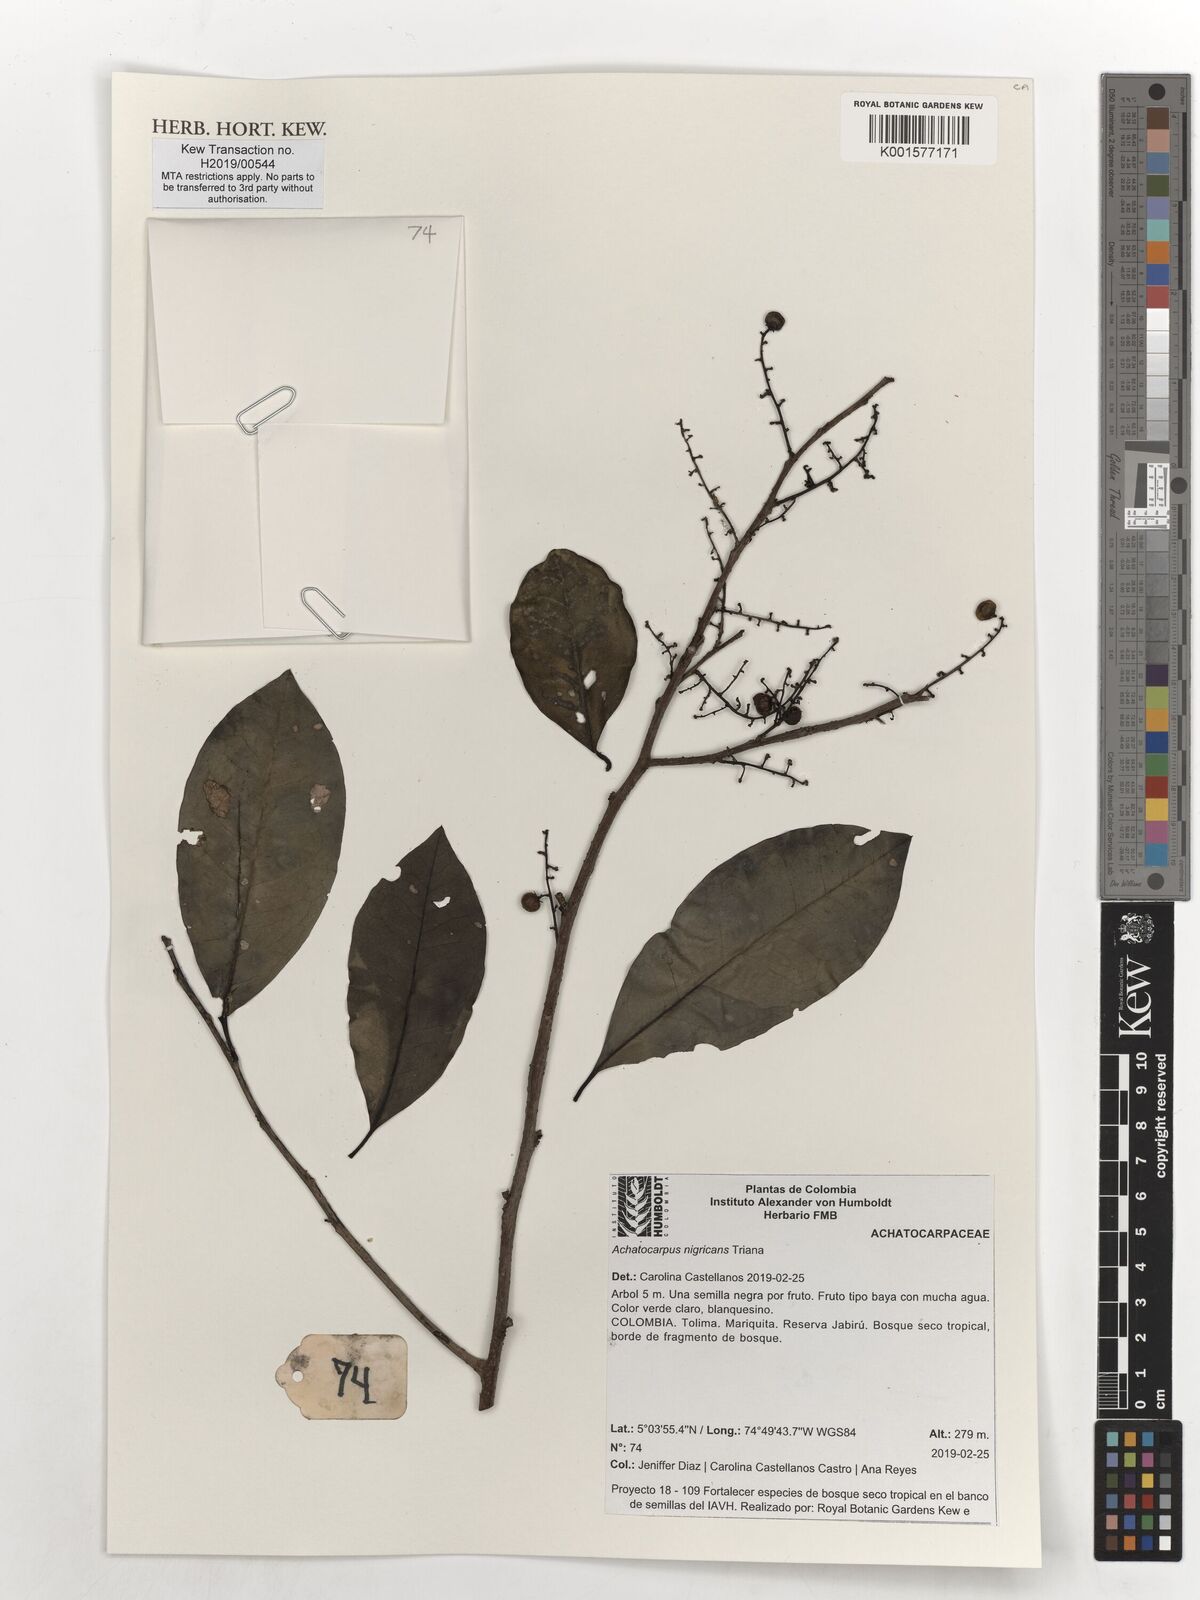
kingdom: Plantae
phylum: Tracheophyta
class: Magnoliopsida
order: Caryophyllales
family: Achatocarpaceae
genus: Achatocarpus
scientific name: Achatocarpus nigricans
